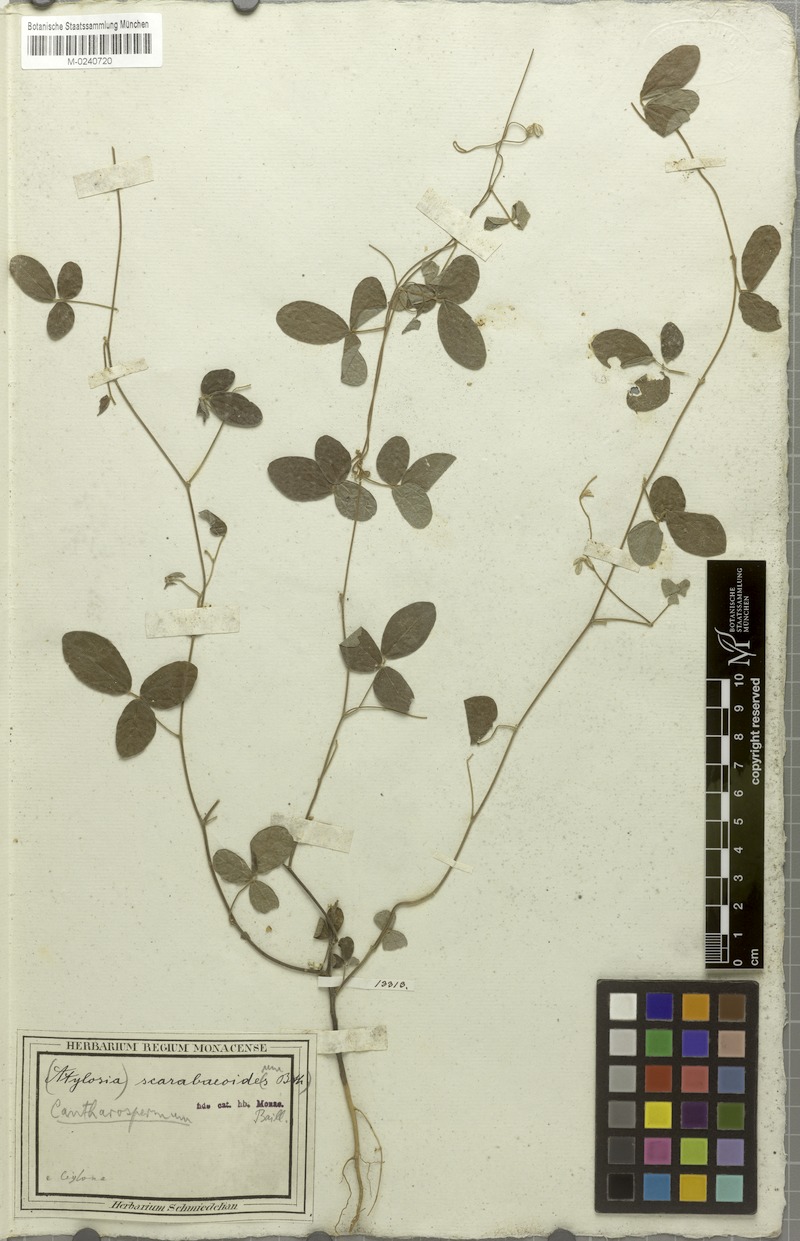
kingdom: Plantae
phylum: Tracheophyta
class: Magnoliopsida
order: Fabales
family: Fabaceae
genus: Cajanus
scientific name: Cajanus scarabaeoides
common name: Showy pigeonpea
